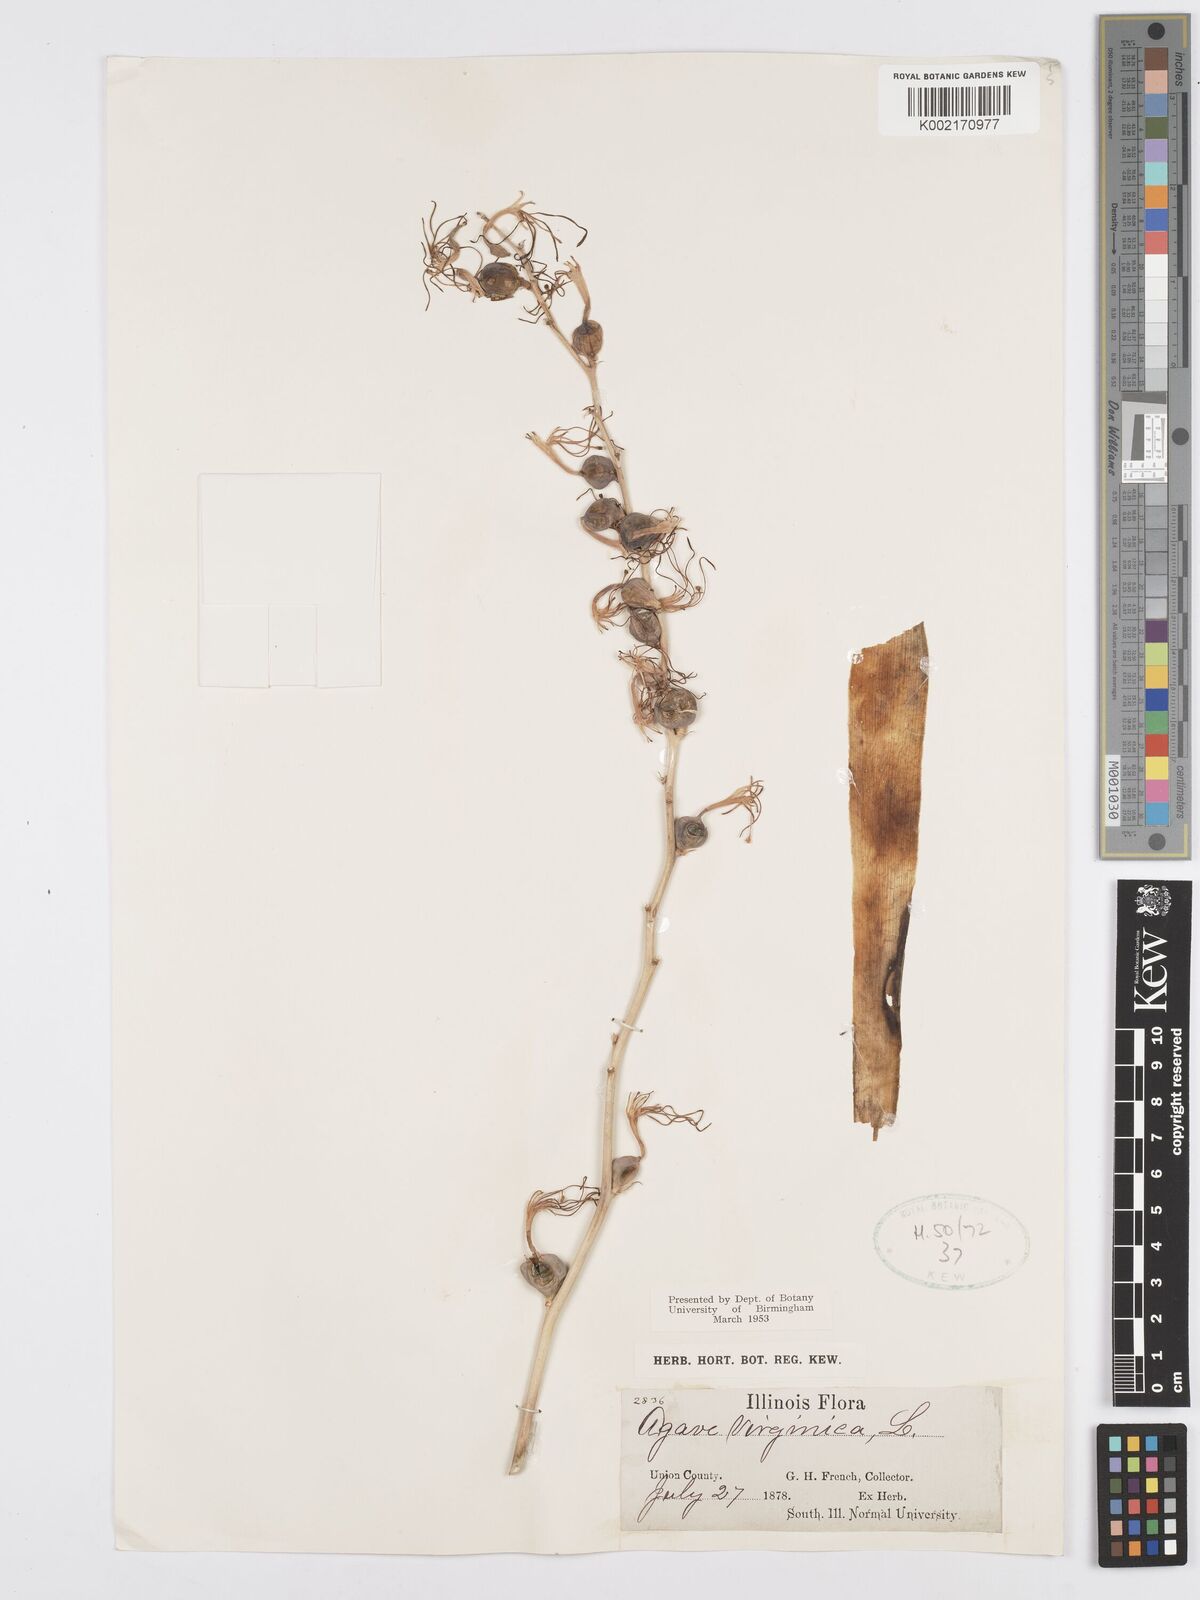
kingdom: Plantae
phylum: Tracheophyta
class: Liliopsida
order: Asparagales
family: Asparagaceae
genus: Agave
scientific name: Agave virginica
